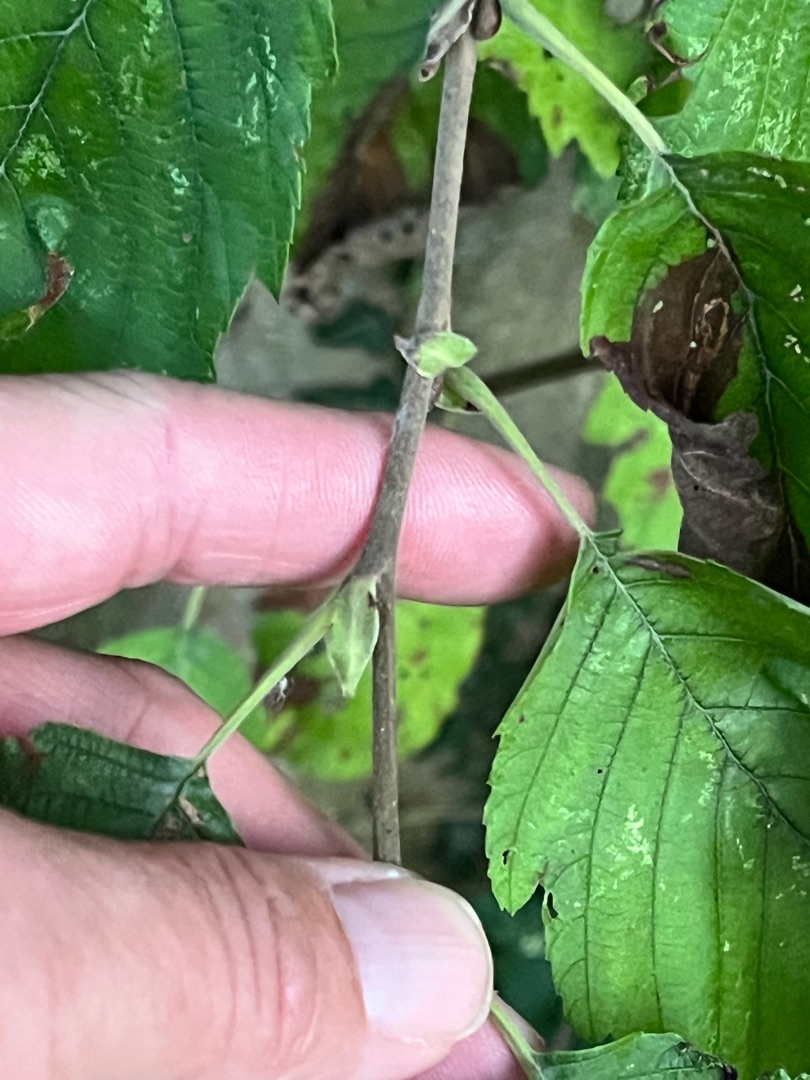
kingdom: Plantae
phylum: Tracheophyta
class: Magnoliopsida
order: Fagales
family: Betulaceae
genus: Alnus
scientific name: Alnus incana
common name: Grå-el/hvid-el
